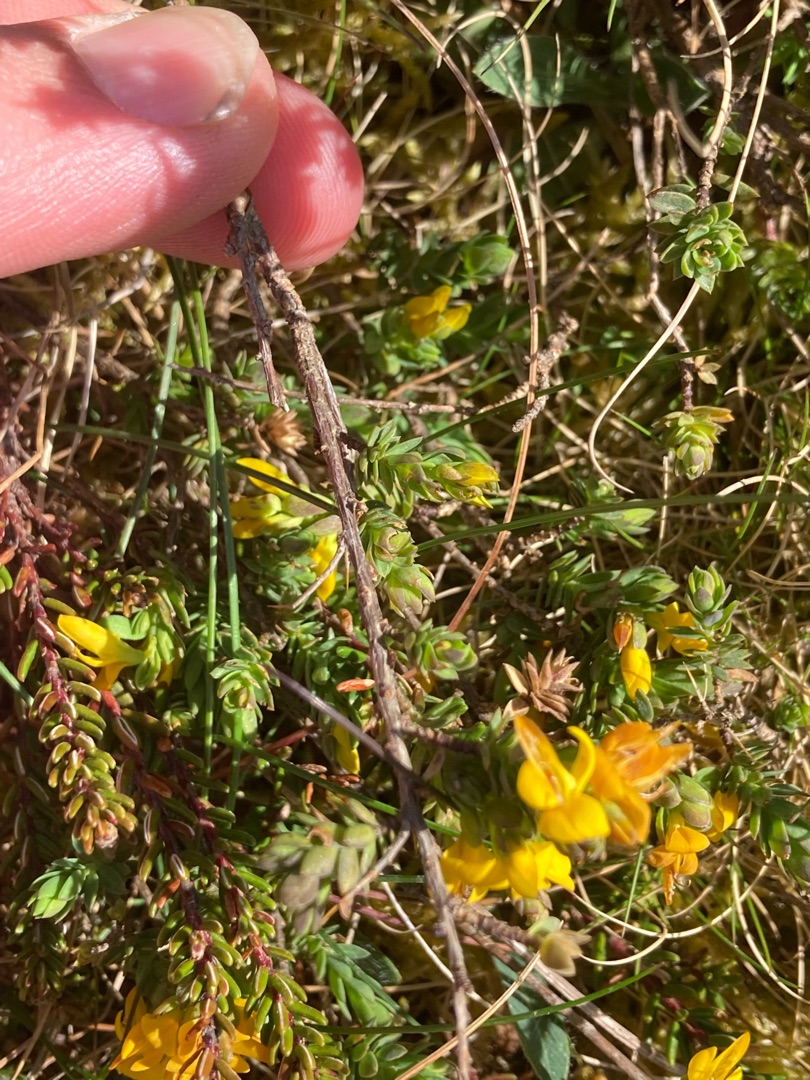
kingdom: Plantae
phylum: Tracheophyta
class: Magnoliopsida
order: Fabales
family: Fabaceae
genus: Genista
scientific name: Genista anglica
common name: Engelsk visse
